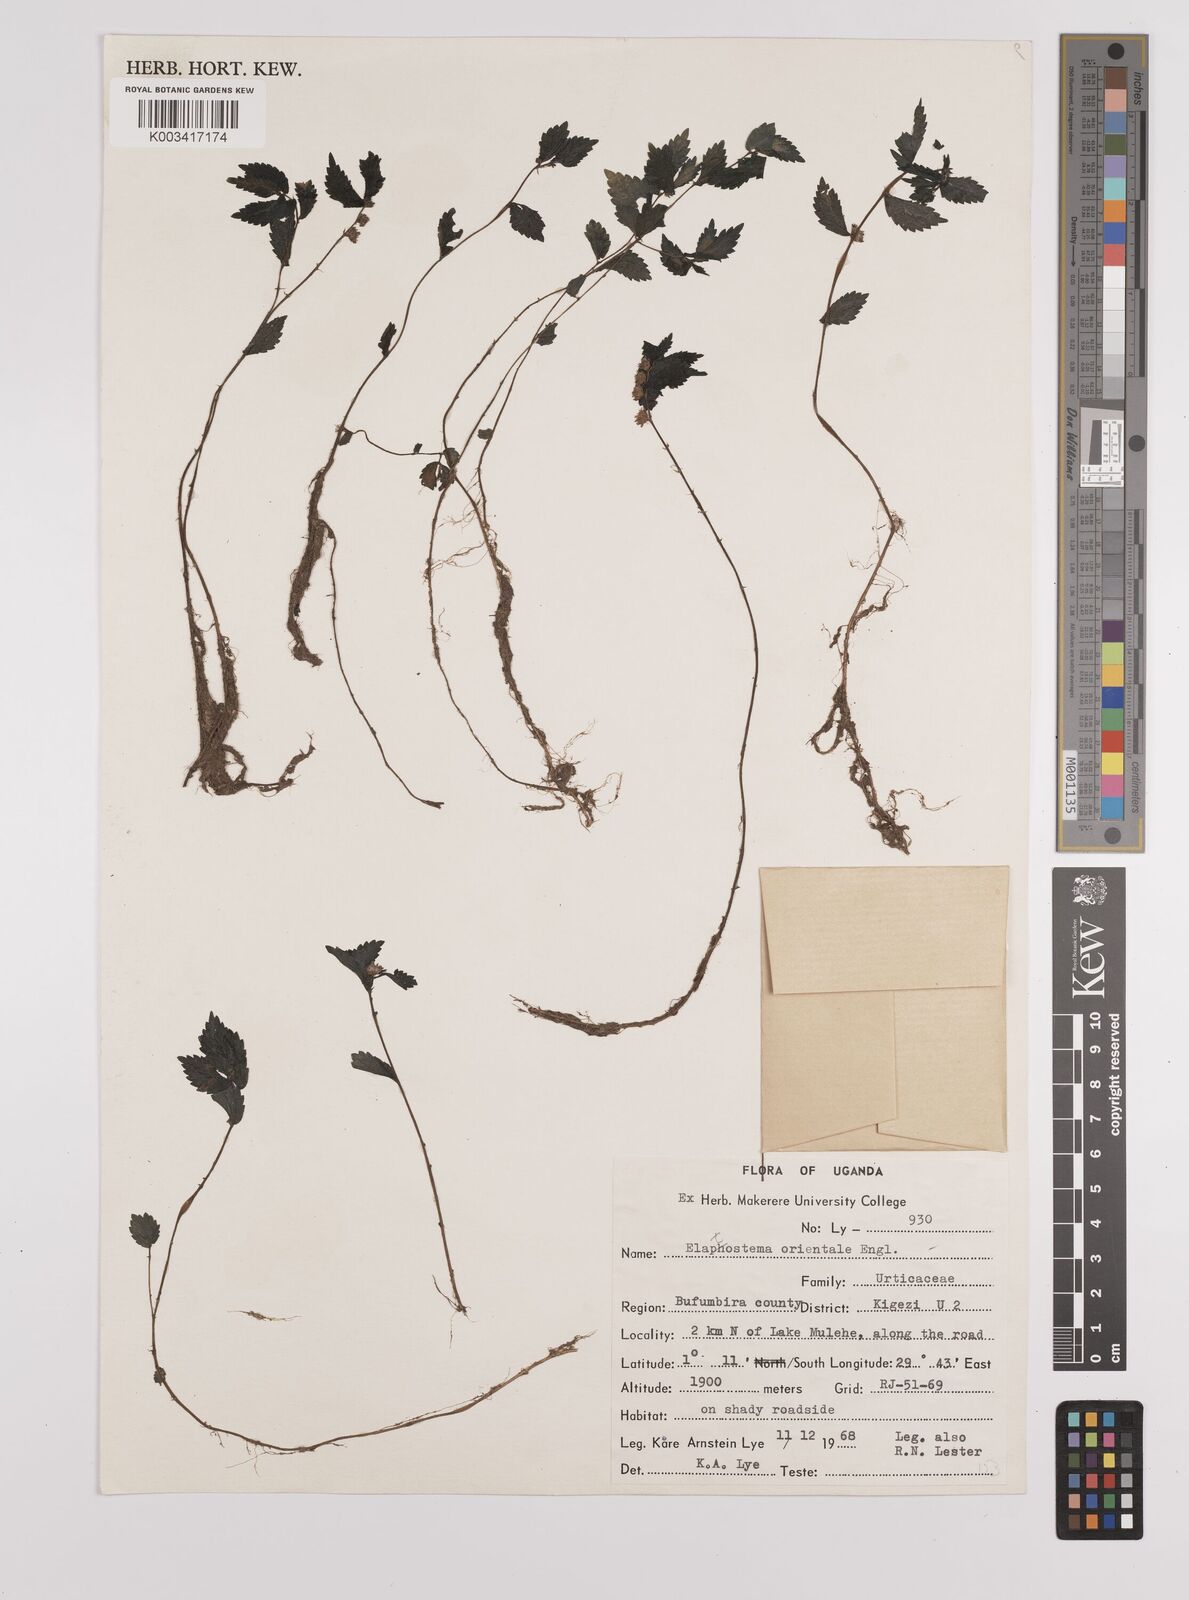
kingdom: Plantae
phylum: Tracheophyta
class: Magnoliopsida
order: Rosales
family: Urticaceae
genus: Elatostema
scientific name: Elatostema monticola
